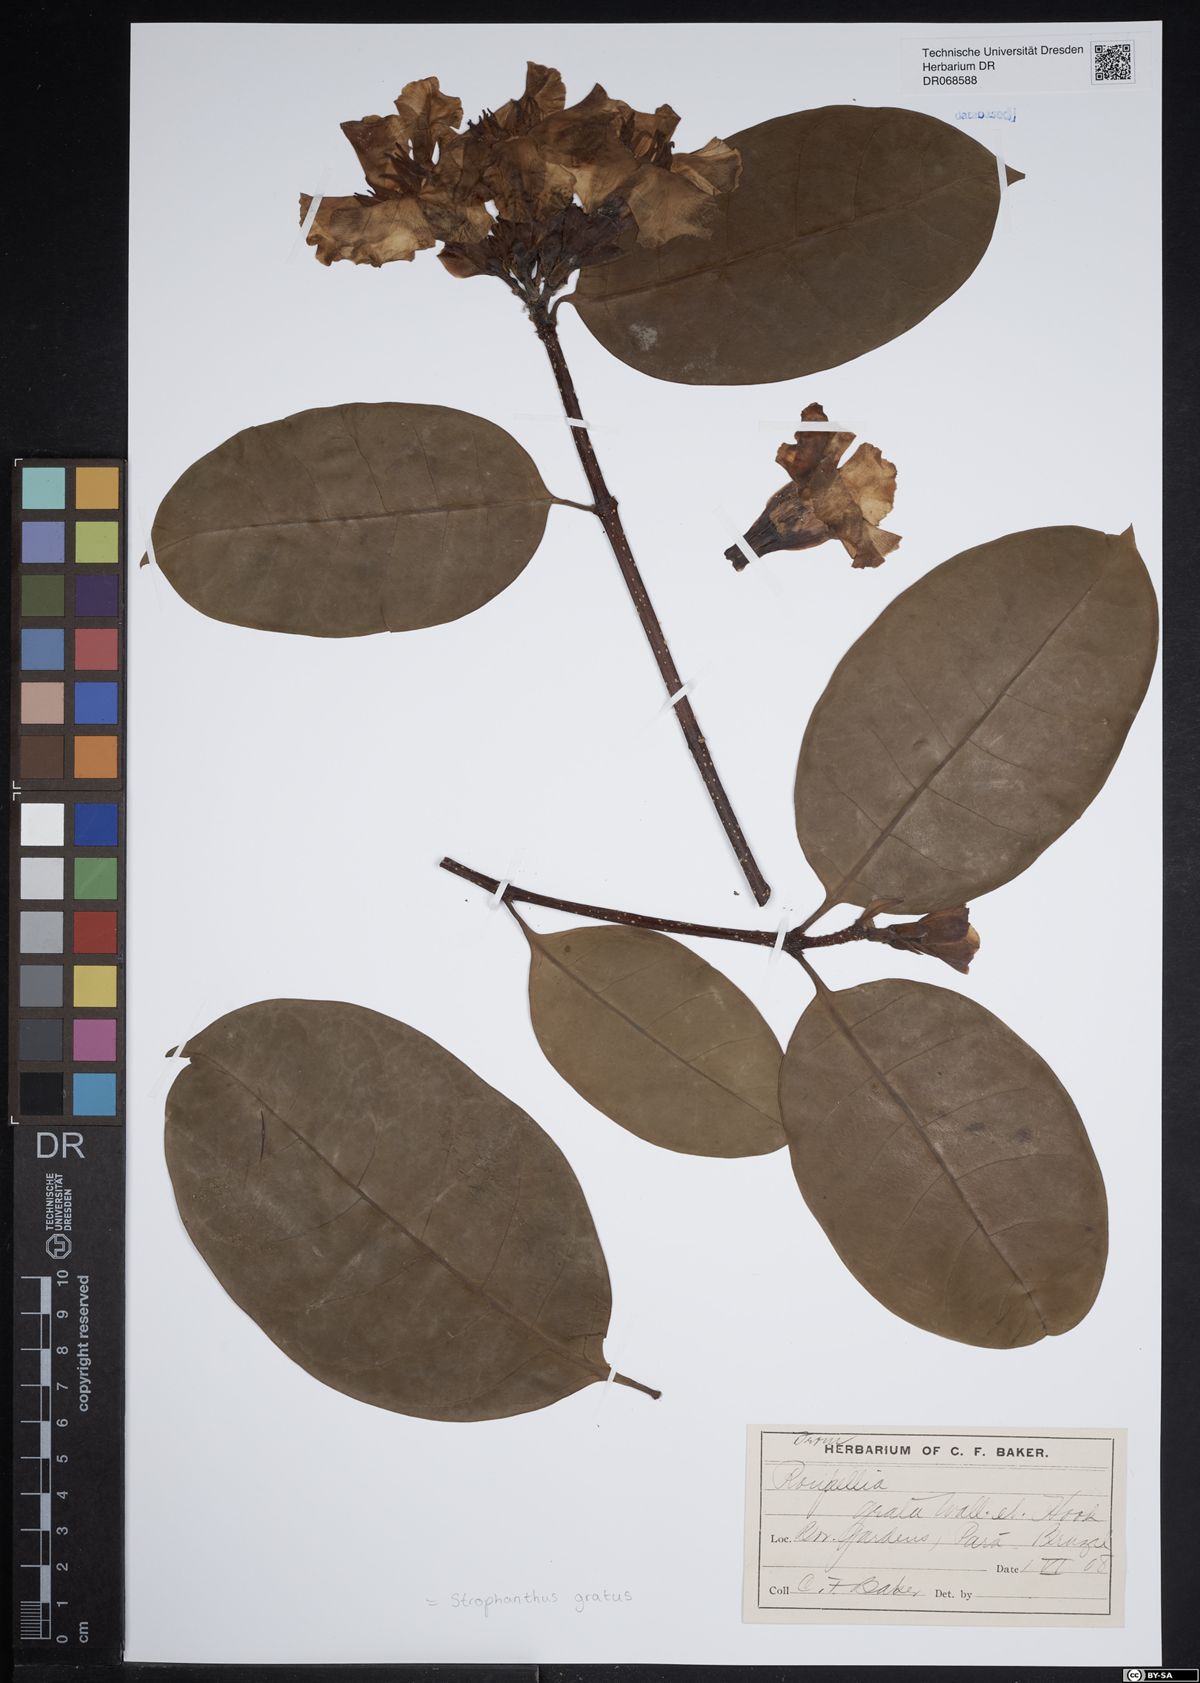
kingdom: Plantae
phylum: Tracheophyta
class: Magnoliopsida
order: Gentianales
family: Apocynaceae
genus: Strophanthus
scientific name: Strophanthus gratus
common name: Climbing-oleander
